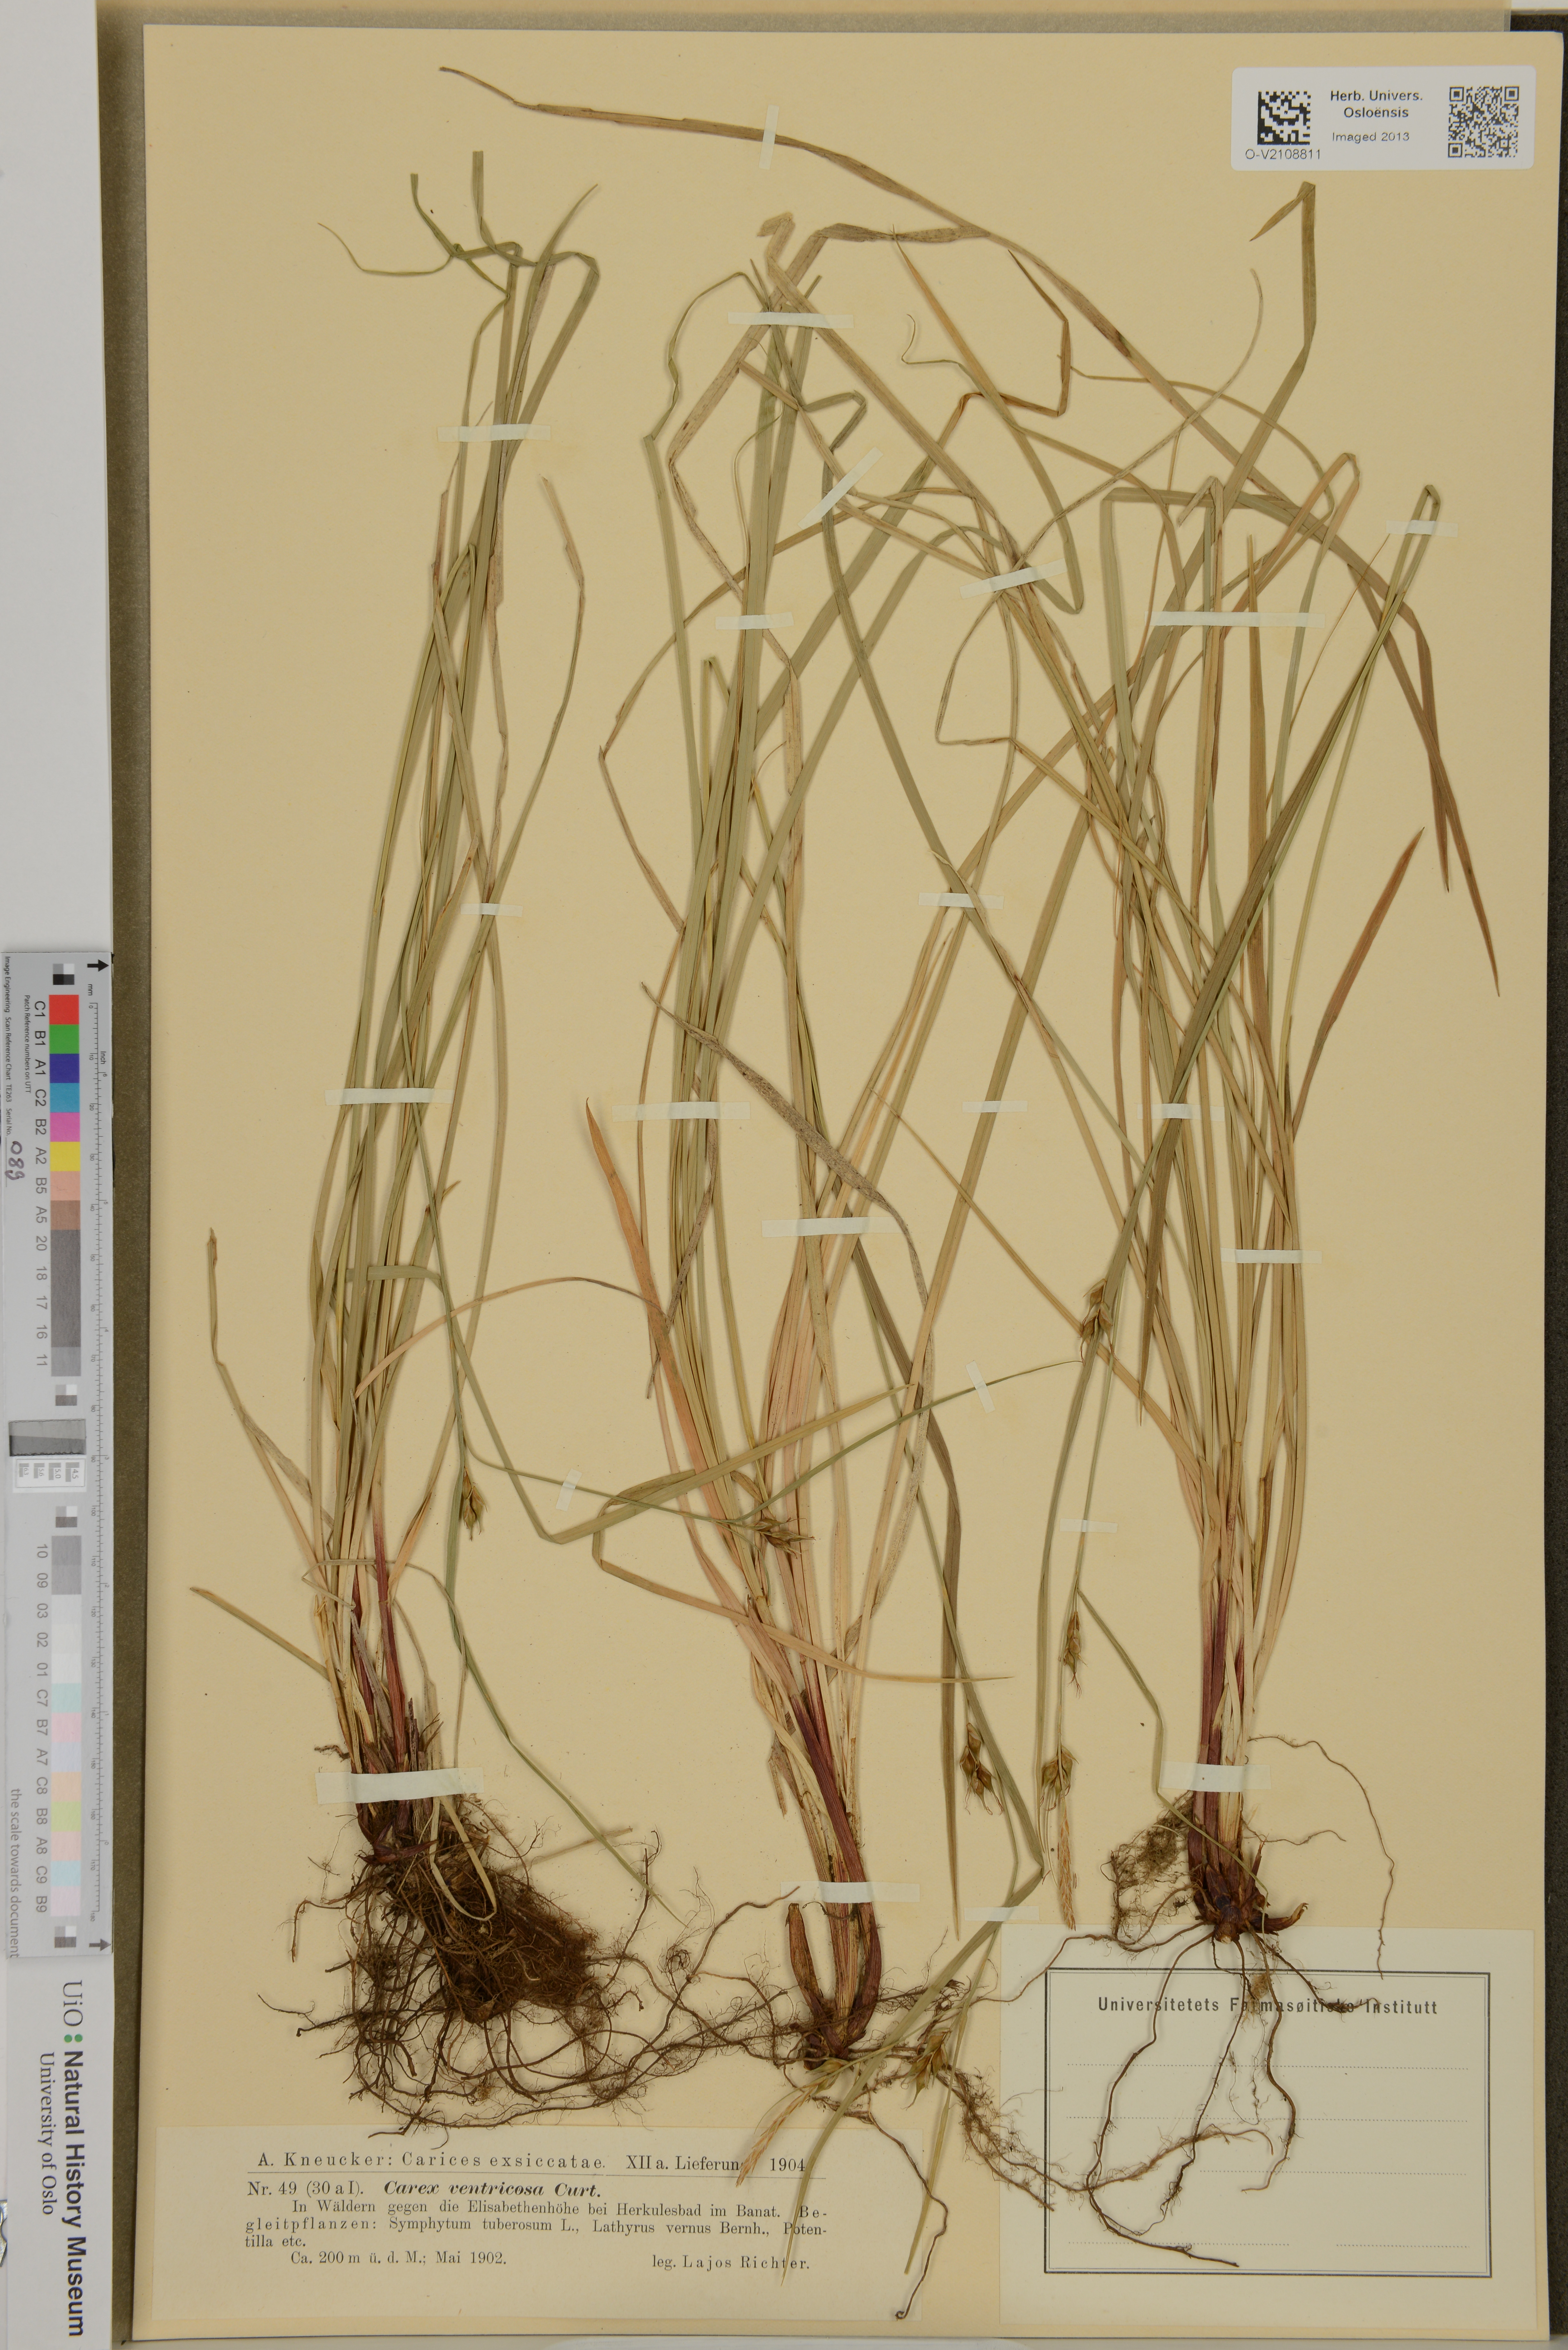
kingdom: Plantae
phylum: Tracheophyta
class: Liliopsida
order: Poales
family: Cyperaceae
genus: Carex
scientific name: Carex
